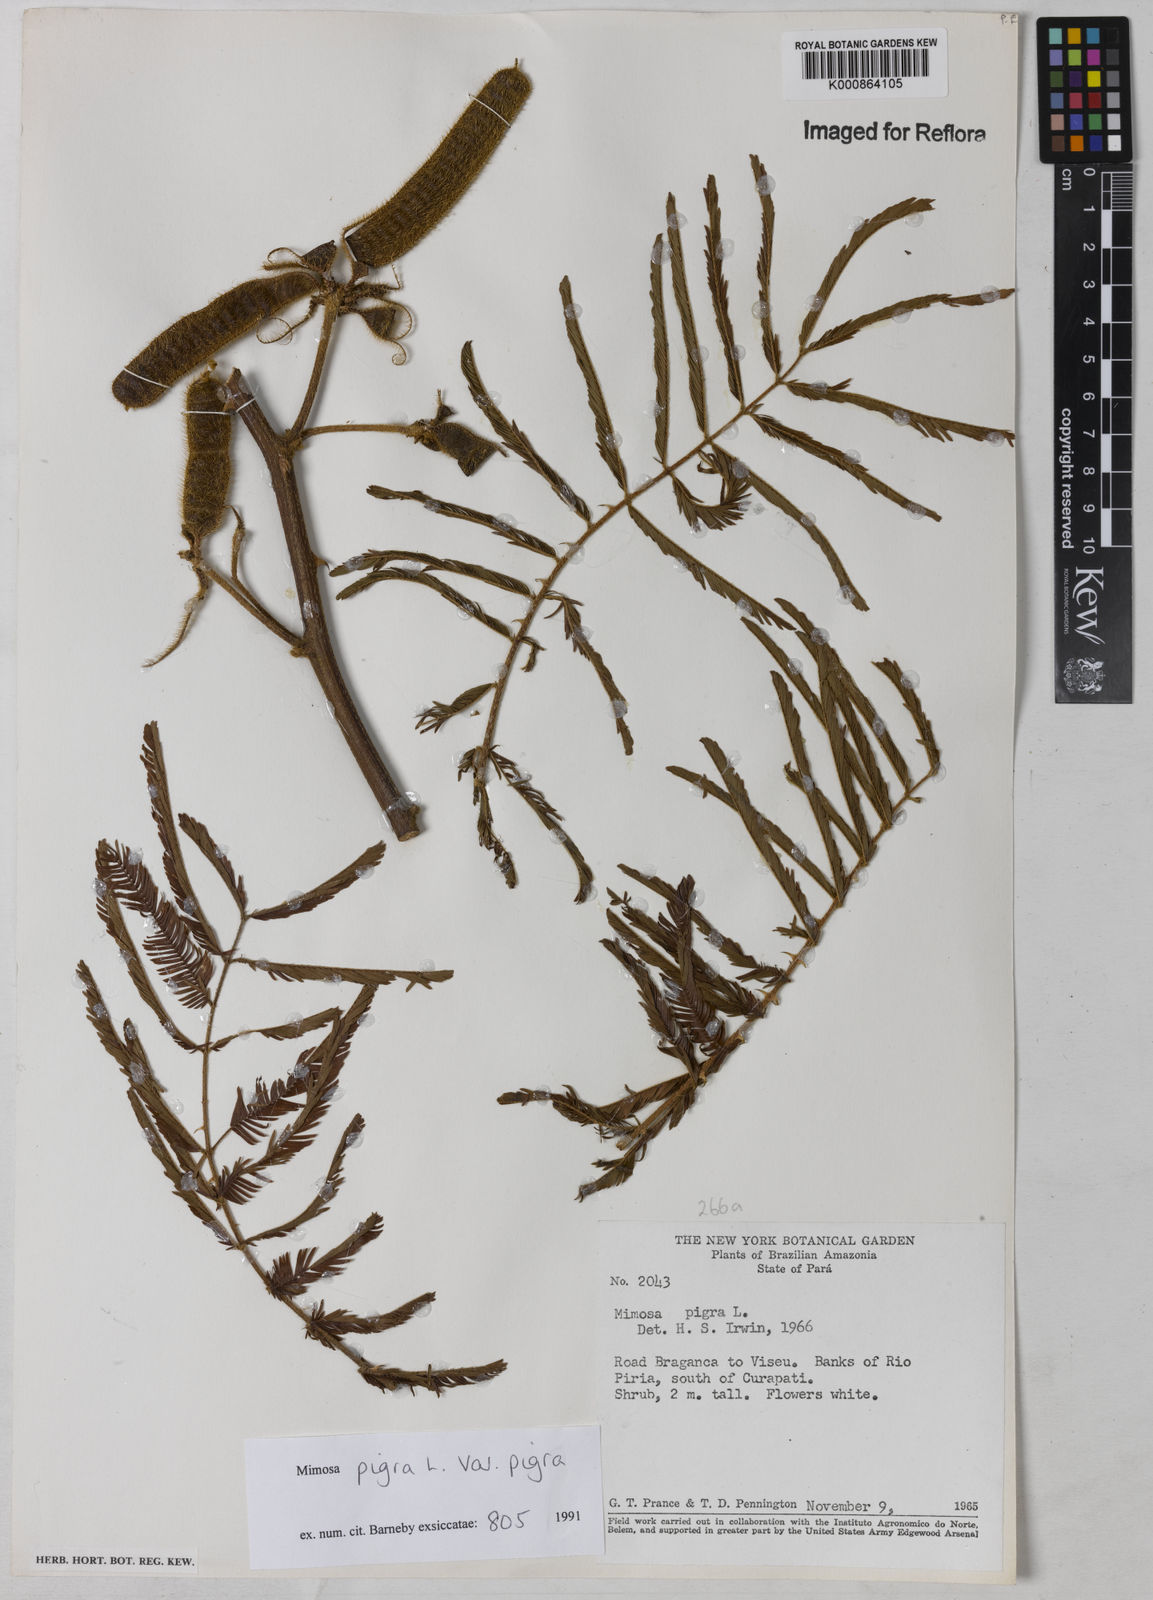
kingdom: Plantae
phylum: Tracheophyta
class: Magnoliopsida
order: Fabales
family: Fabaceae
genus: Mimosa
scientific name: Mimosa pigra
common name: Black mimosa
